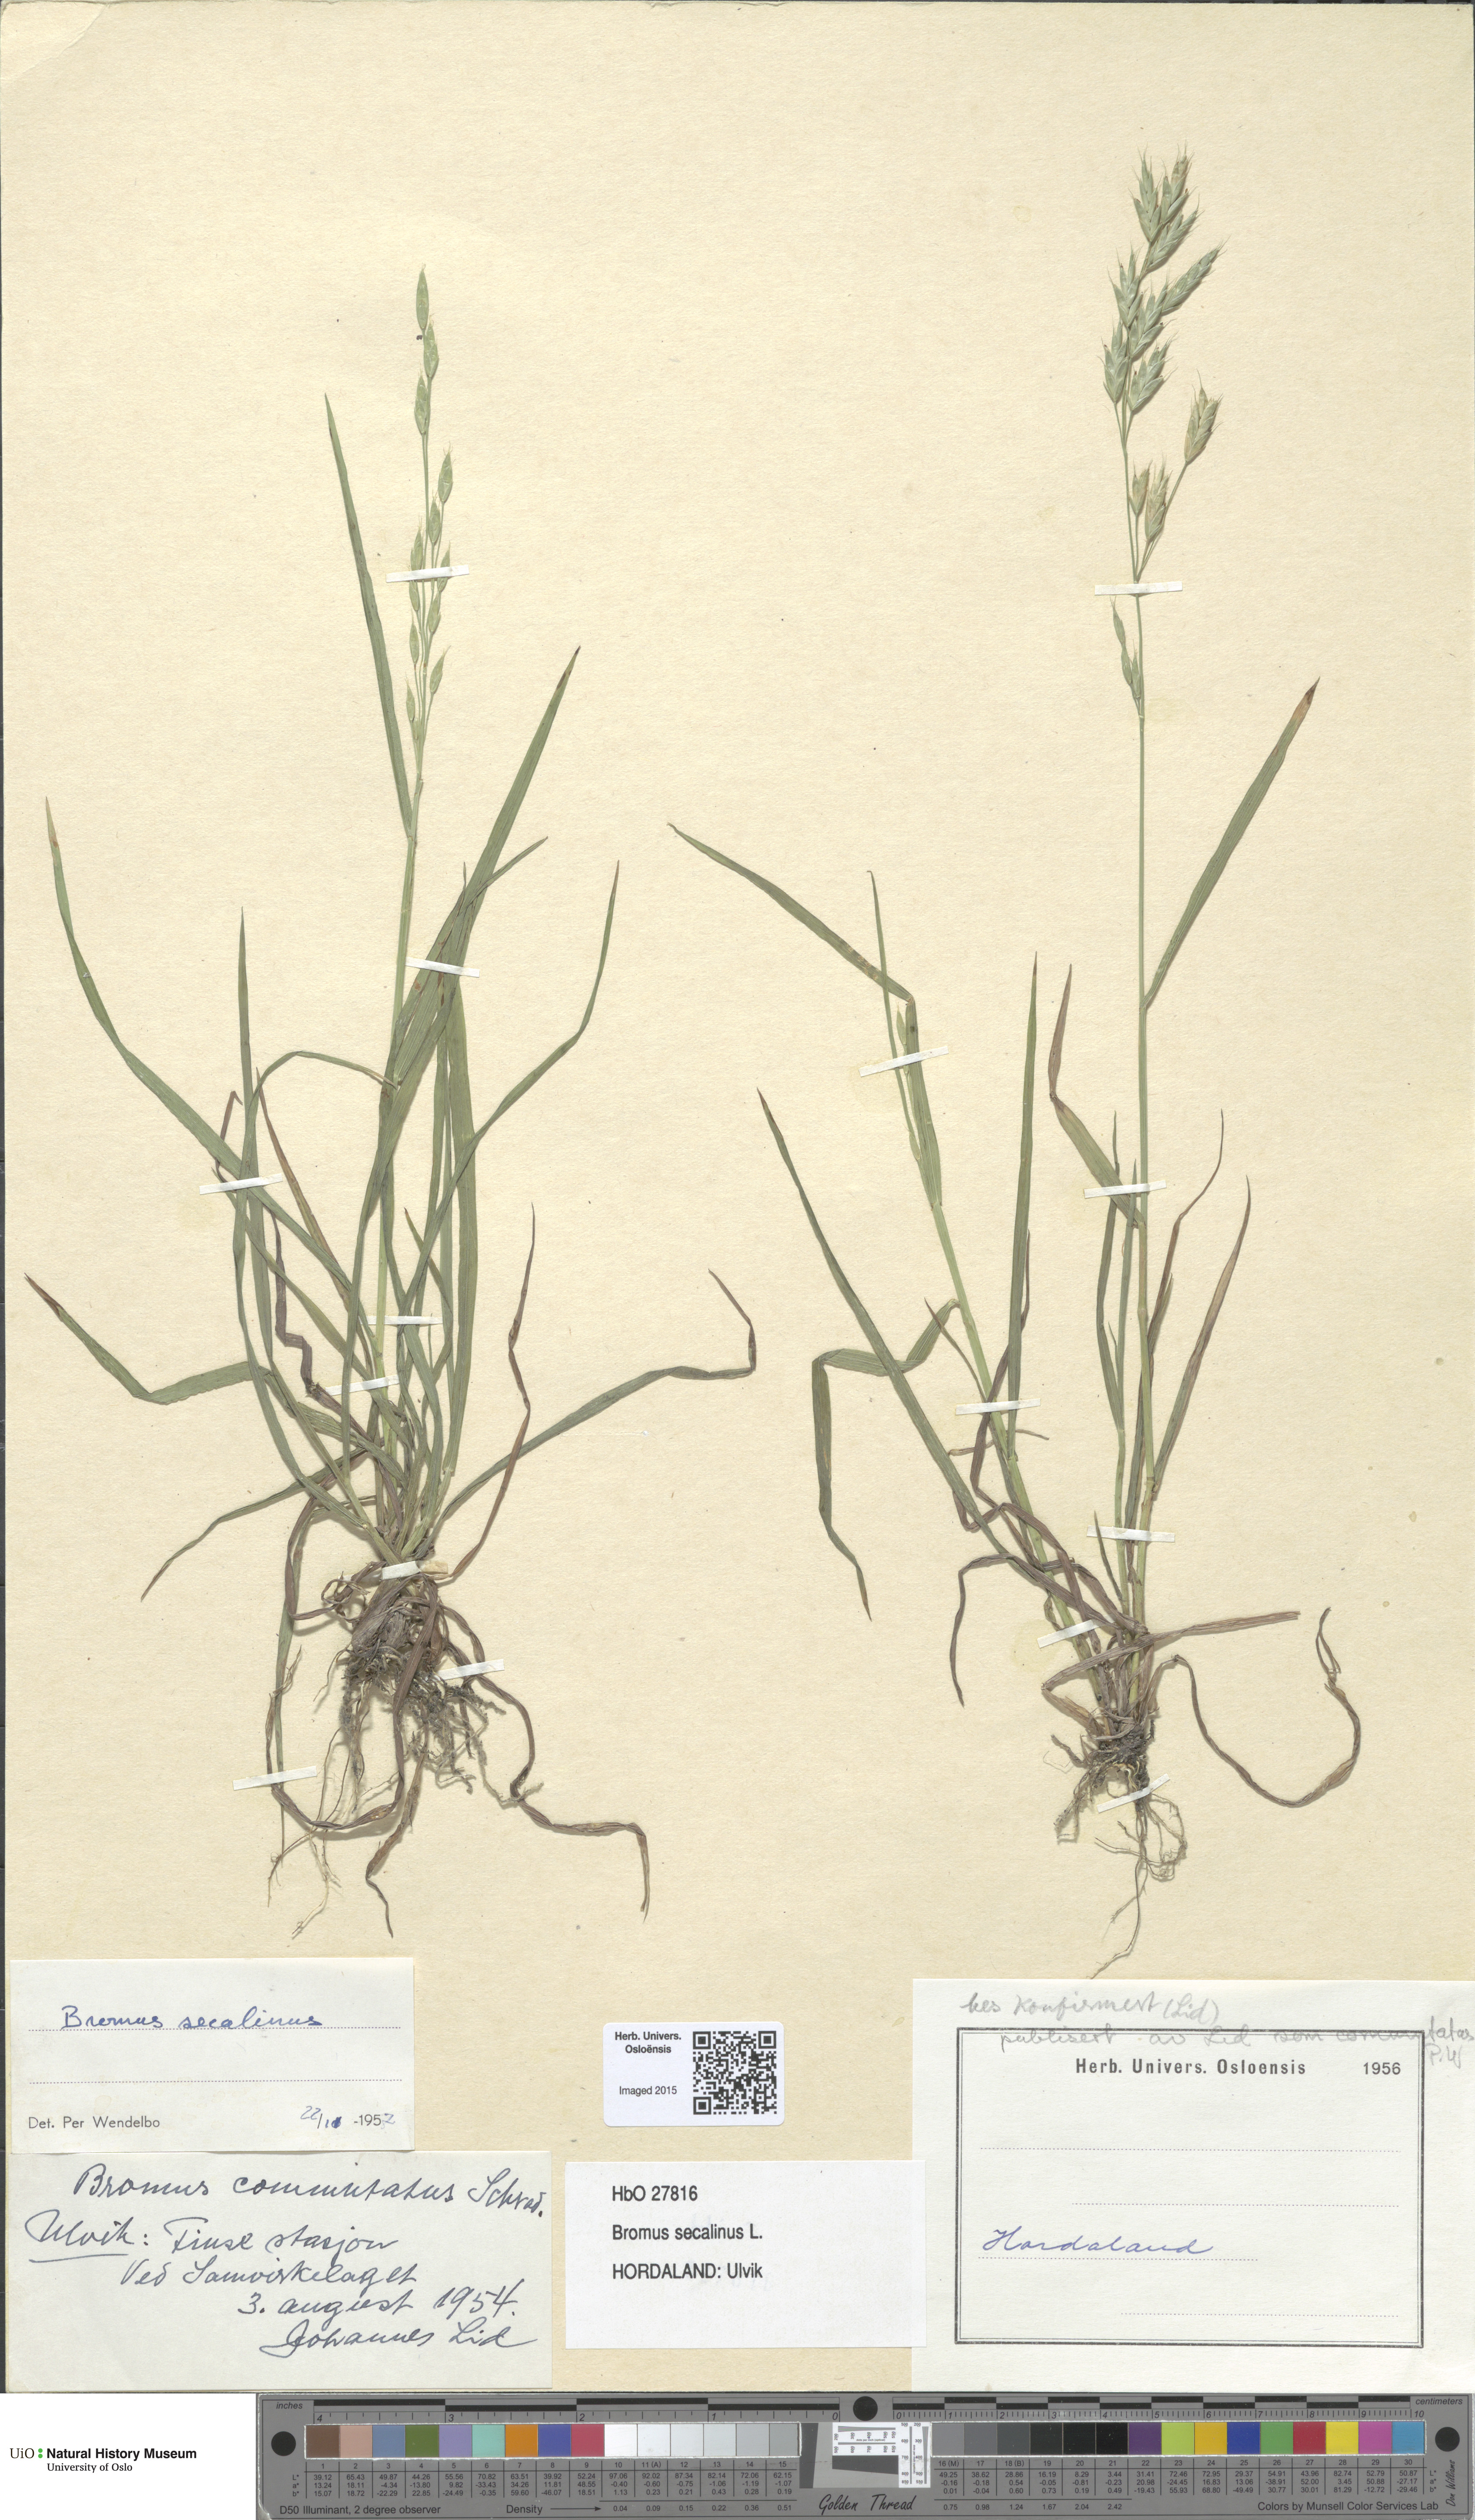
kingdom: Plantae
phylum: Tracheophyta
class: Liliopsida
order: Poales
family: Poaceae
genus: Bromus
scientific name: Bromus secalinus
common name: Rye brome
